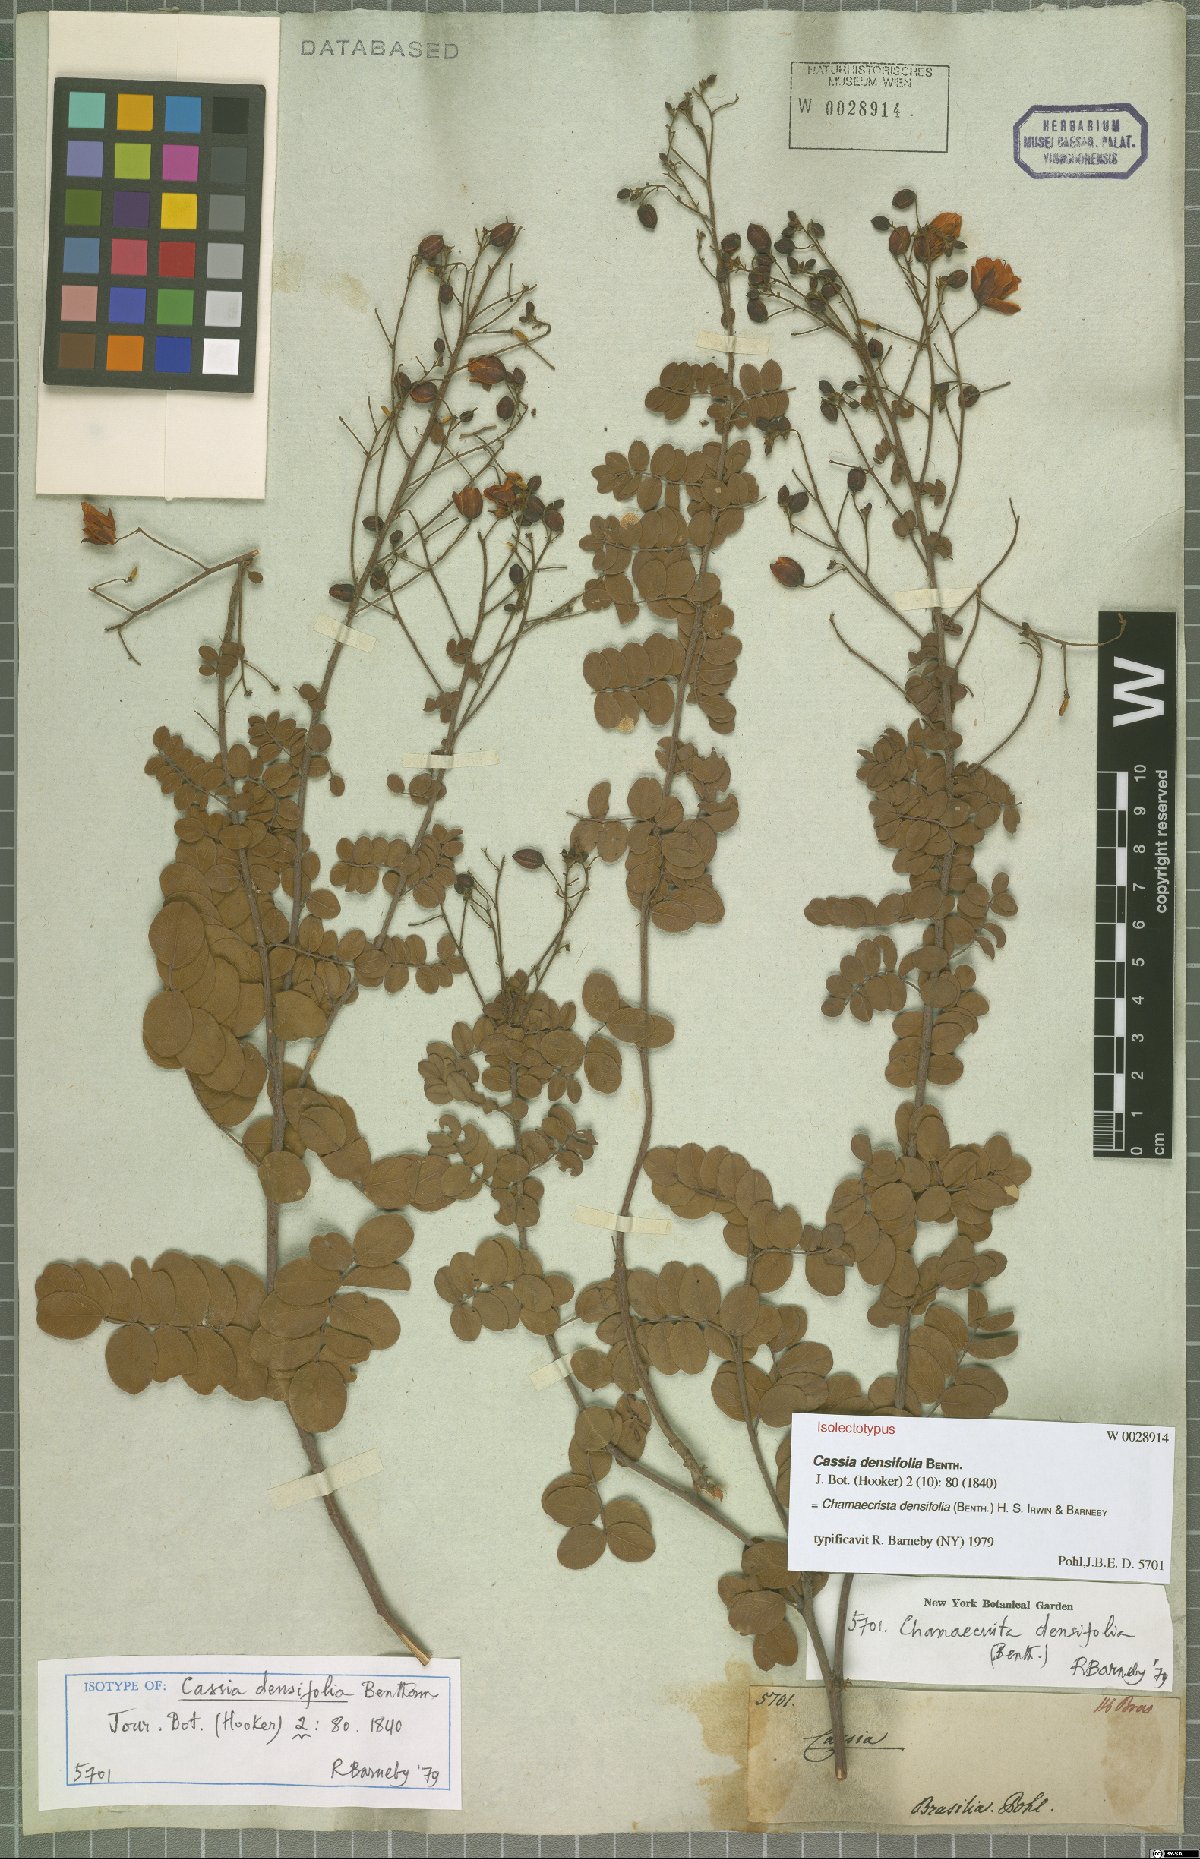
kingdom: Plantae
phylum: Tracheophyta
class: Magnoliopsida
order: Fabales
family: Fabaceae
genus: Chamaecrista
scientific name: Chamaecrista densifolia
